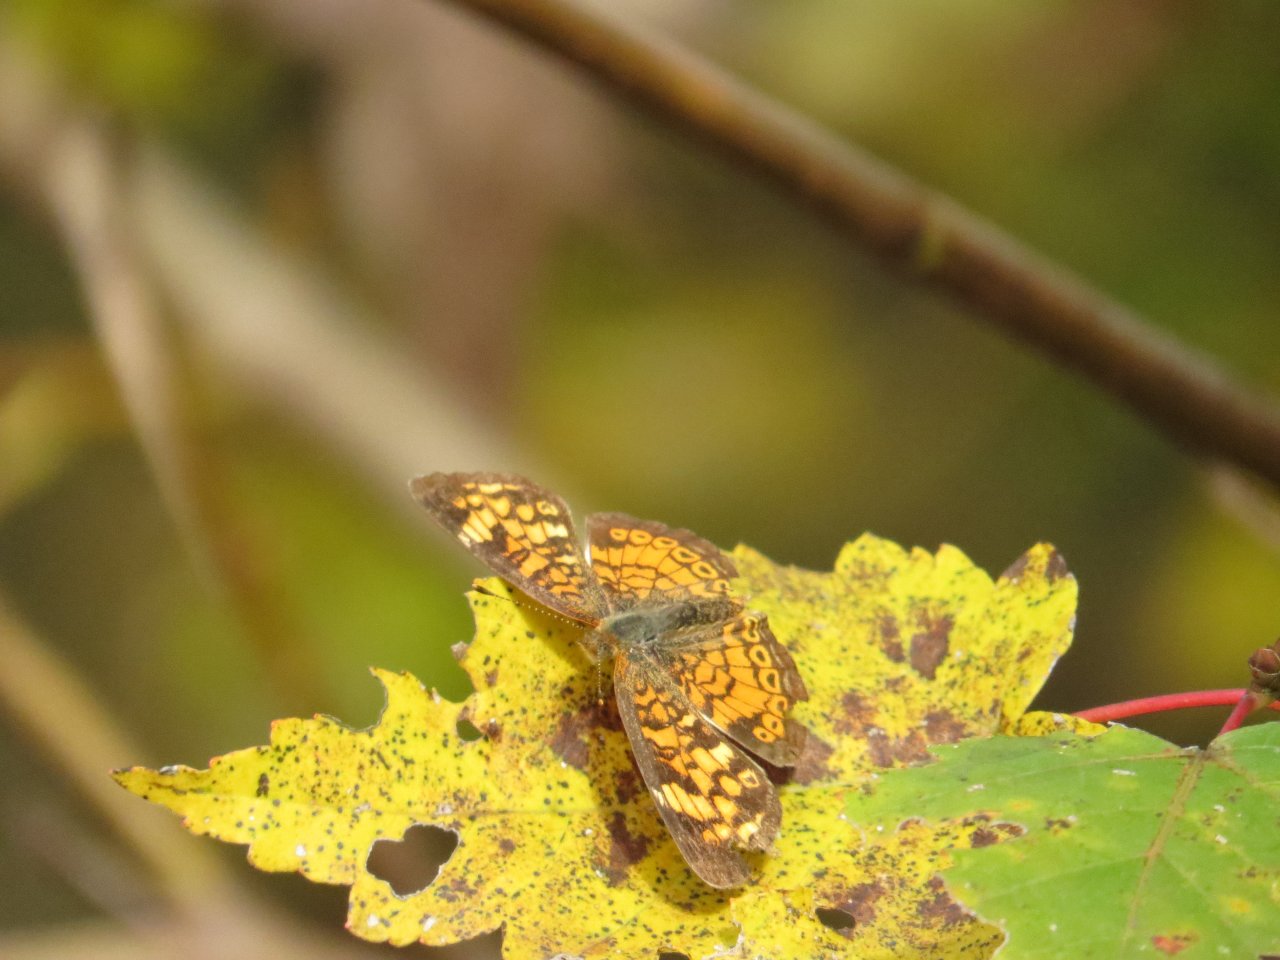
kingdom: Animalia
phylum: Arthropoda
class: Insecta
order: Lepidoptera
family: Nymphalidae
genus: Phyciodes
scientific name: Phyciodes tharos
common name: Pearl Crescent
